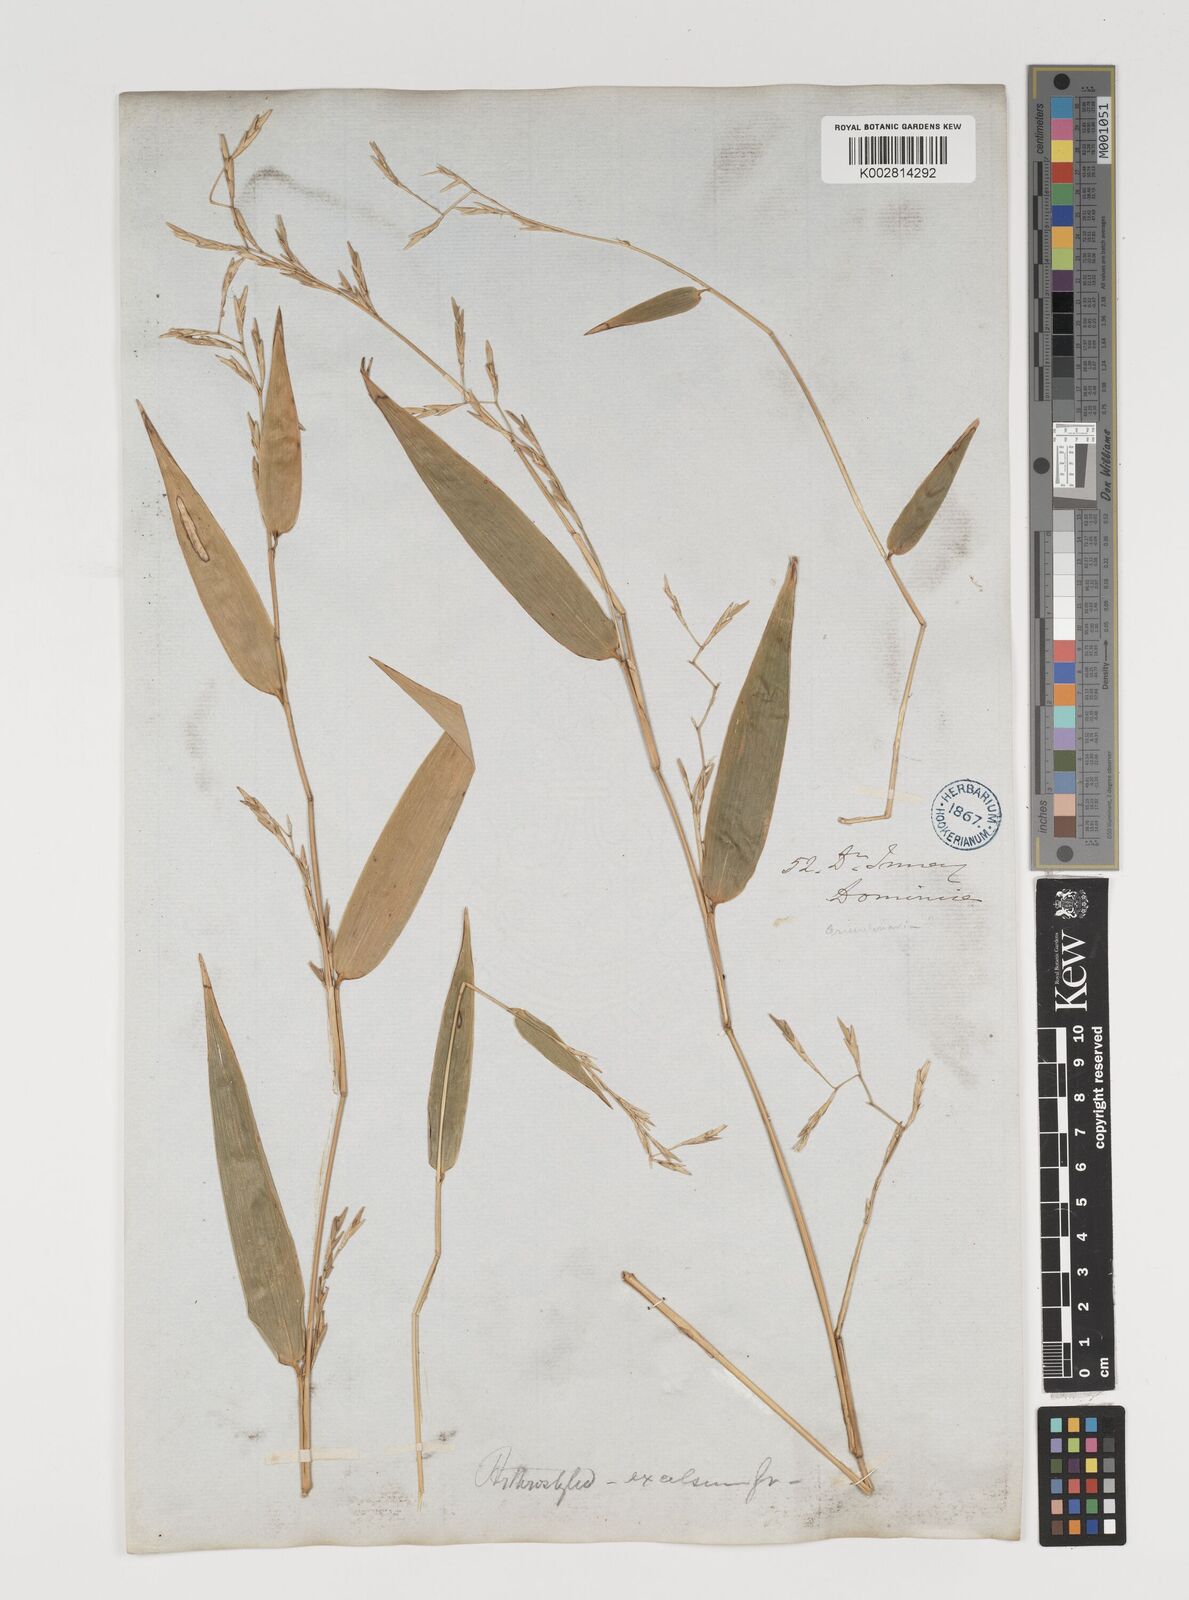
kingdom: Plantae
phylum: Tracheophyta
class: Liliopsida
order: Poales
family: Poaceae
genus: Arthrostylidium
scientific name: Arthrostylidium excelsum
